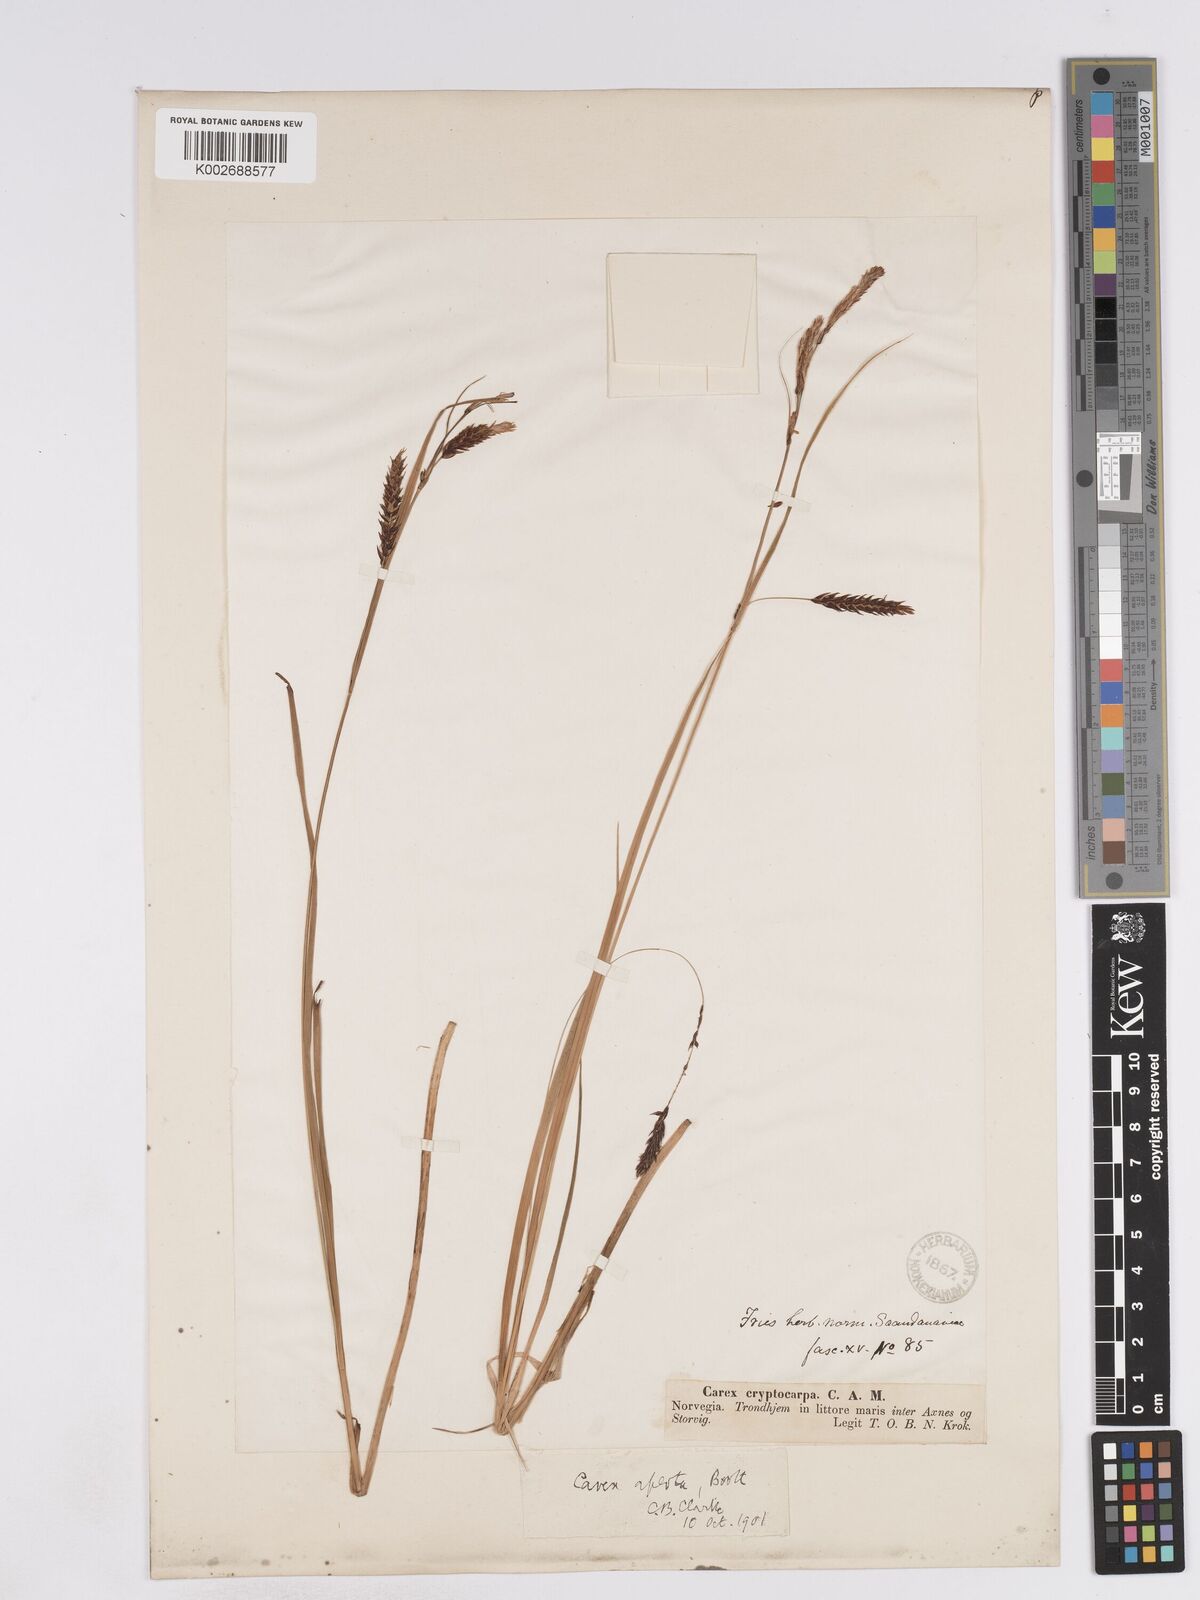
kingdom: Plantae
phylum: Tracheophyta
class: Liliopsida
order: Poales
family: Cyperaceae
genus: Carex
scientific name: Carex lyngbyei
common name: Lyngbye's sedge
